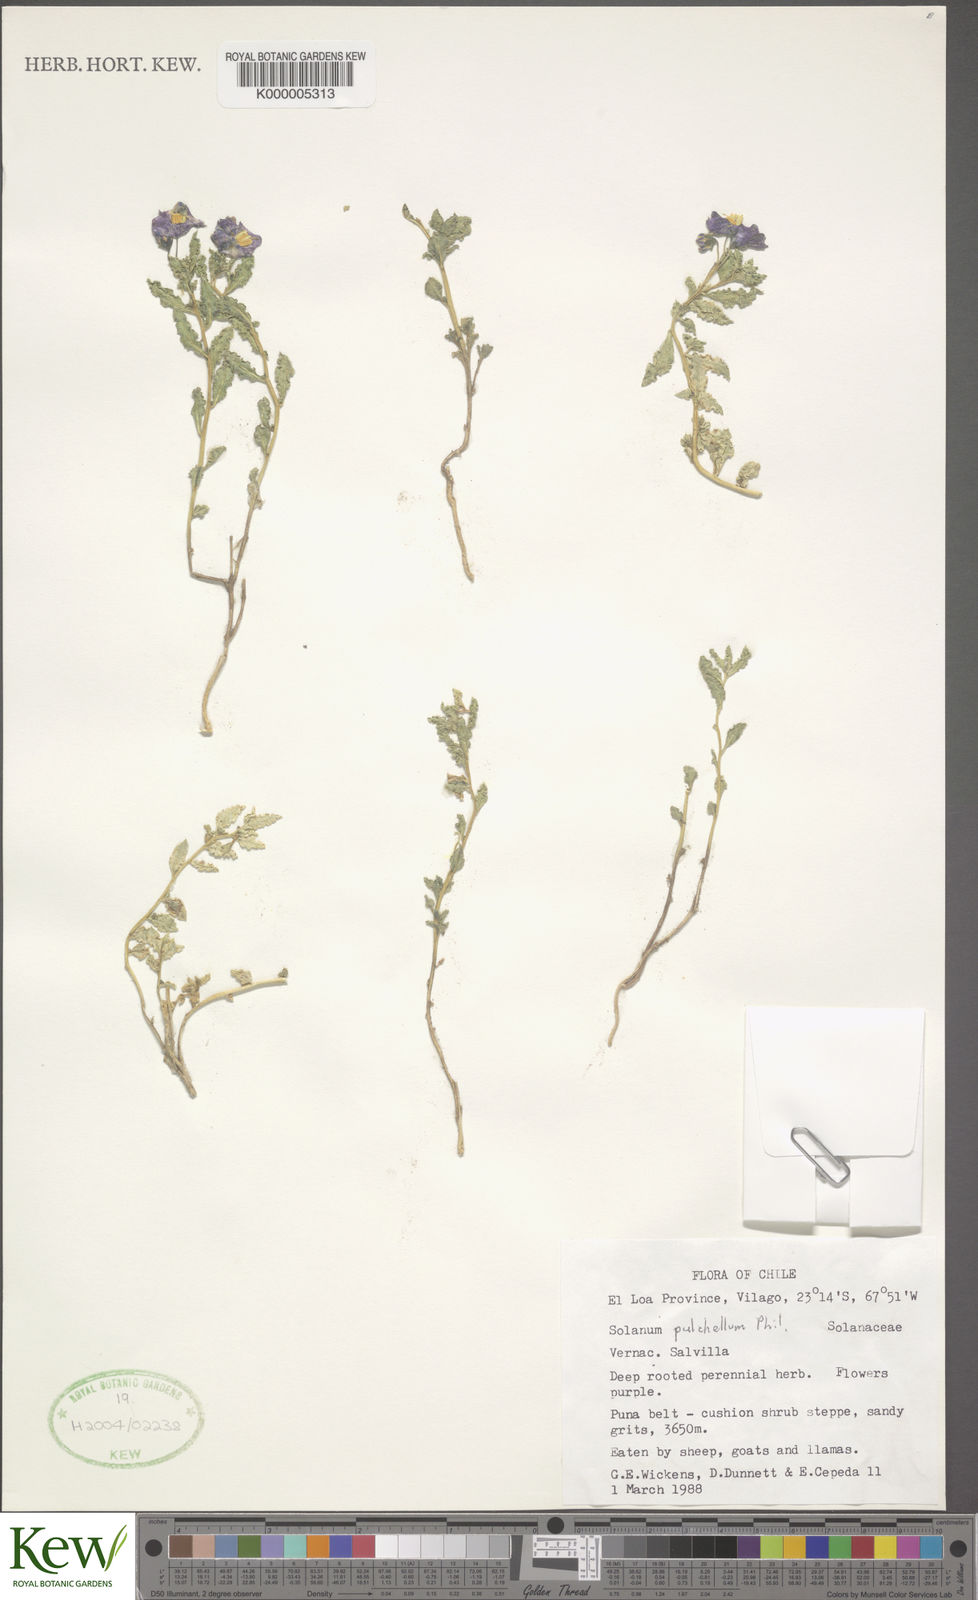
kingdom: Plantae
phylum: Tracheophyta
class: Magnoliopsida
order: Solanales
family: Solanaceae
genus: Solanum
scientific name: Solanum sinuatirecurvum
